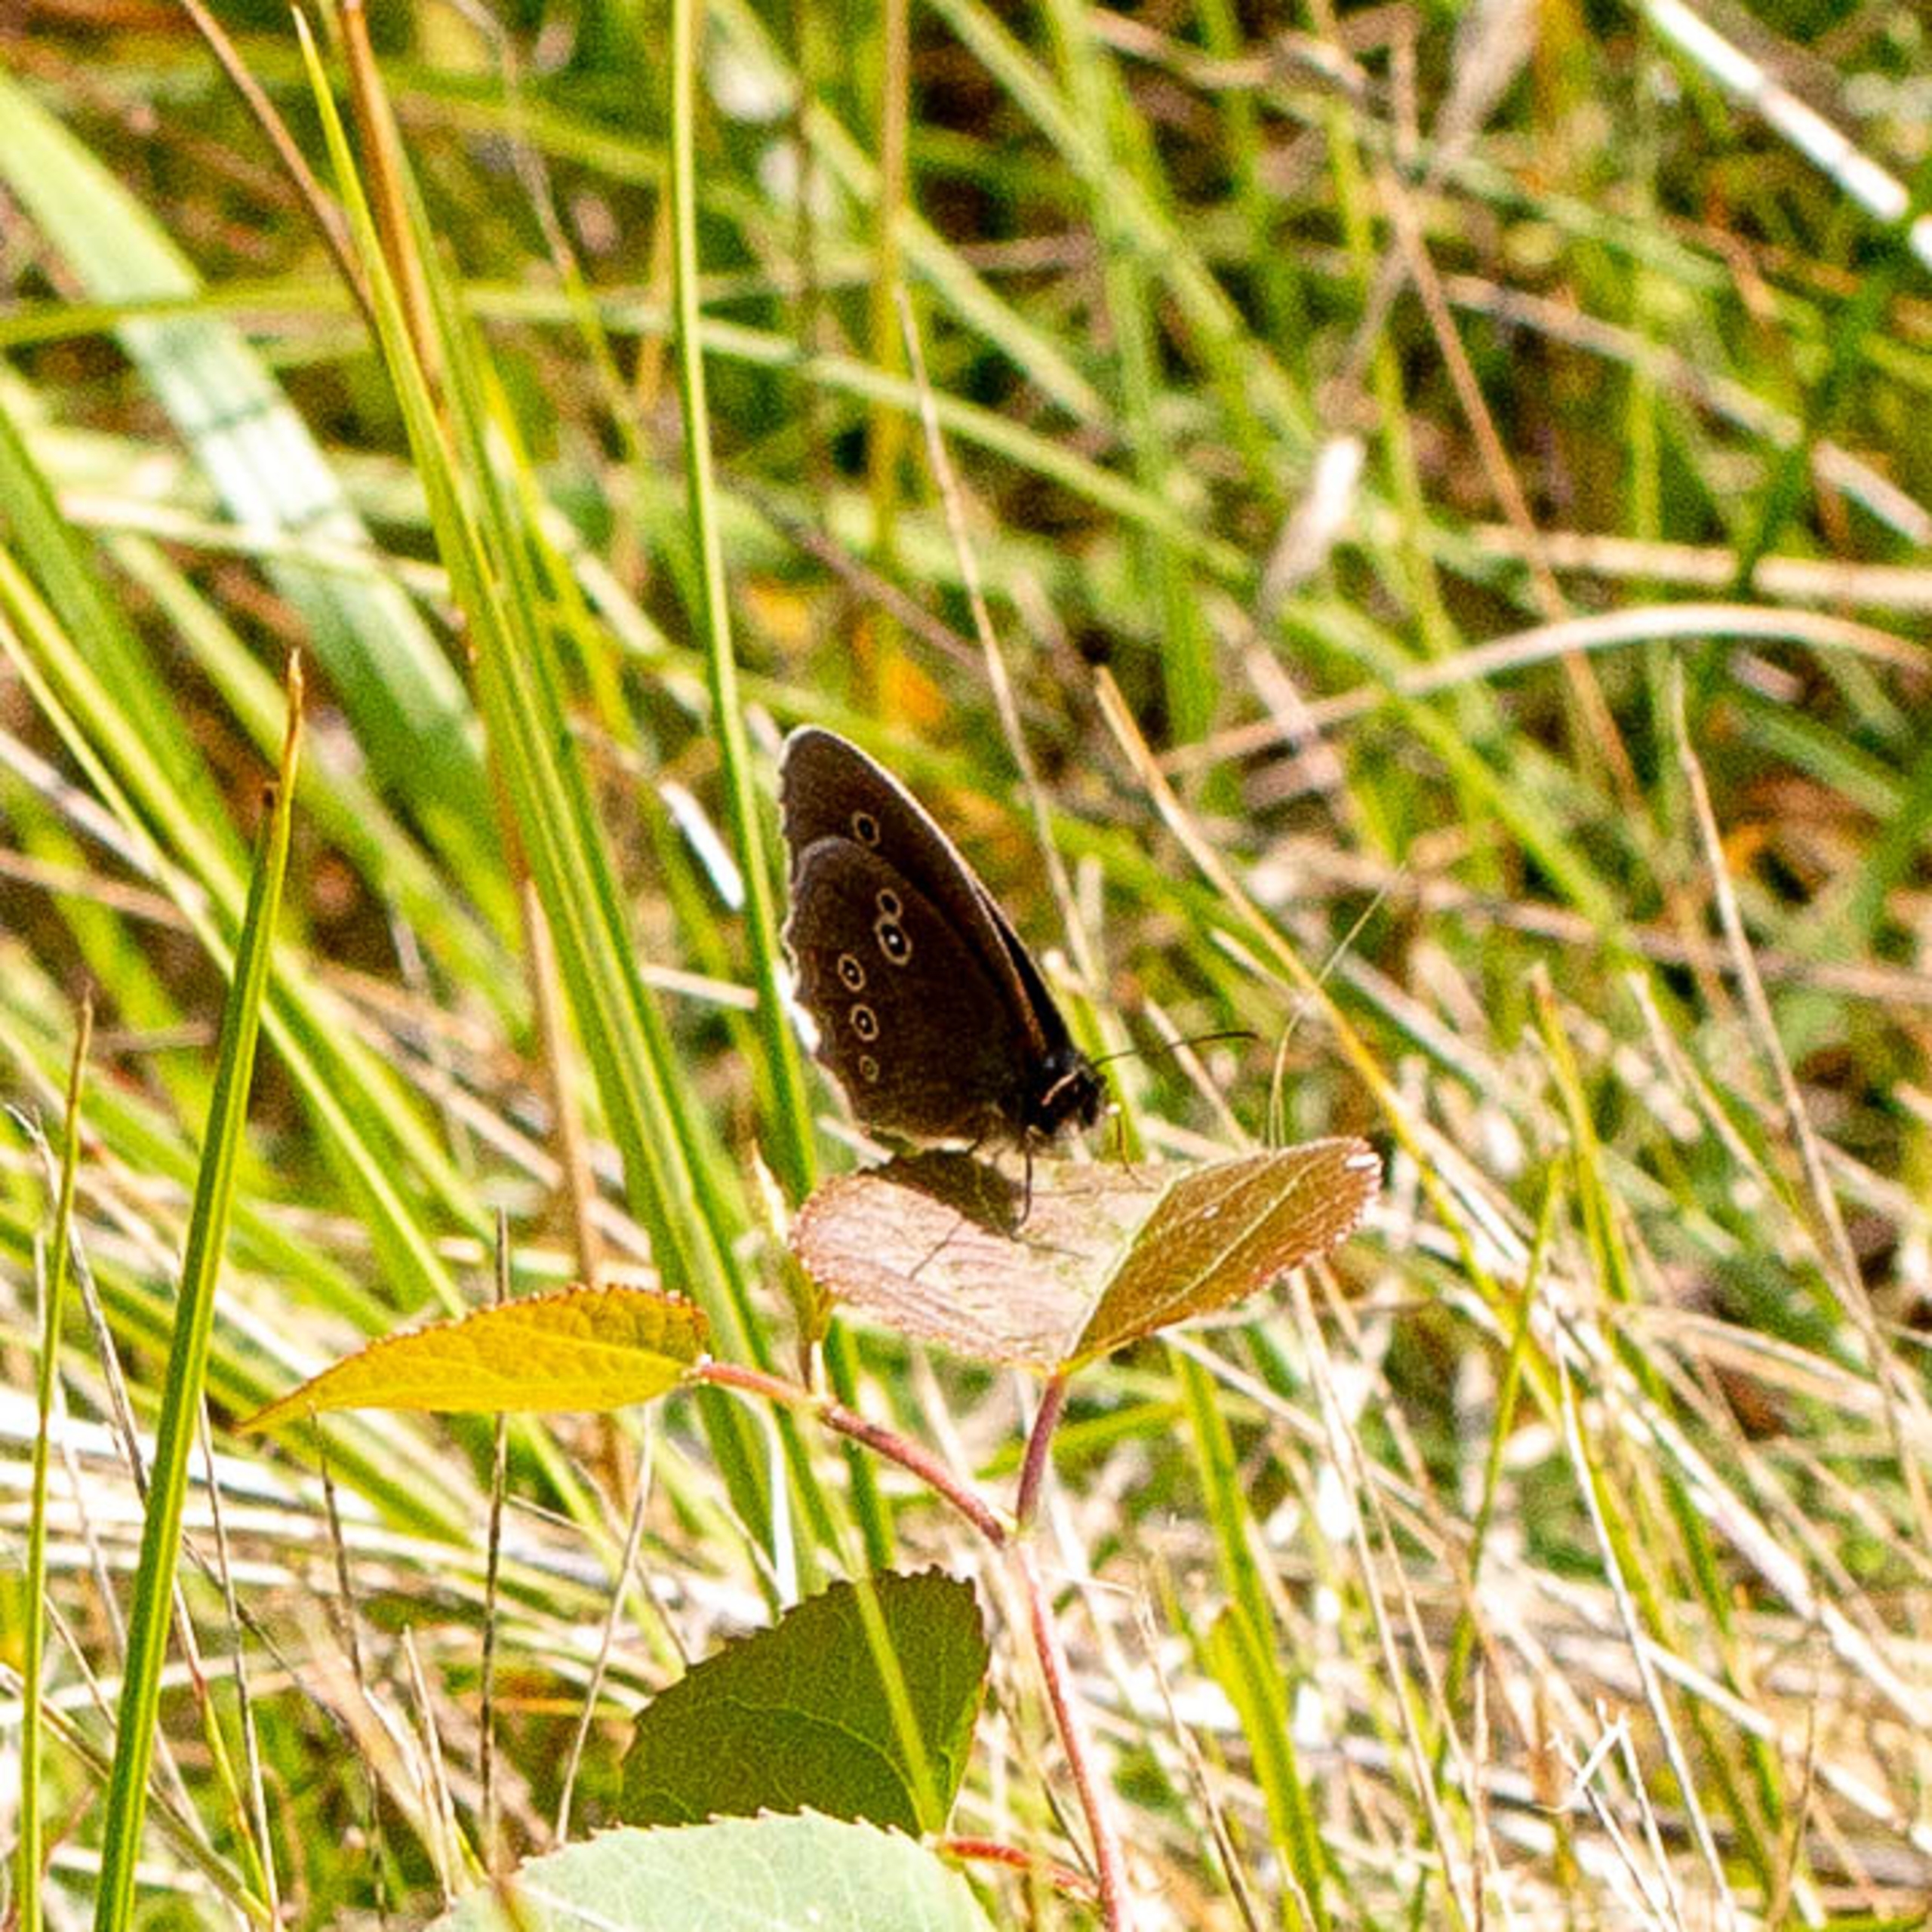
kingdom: Animalia
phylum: Arthropoda
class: Insecta
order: Lepidoptera
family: Nymphalidae
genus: Aphantopus
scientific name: Aphantopus hyperantus
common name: Engrandøje
